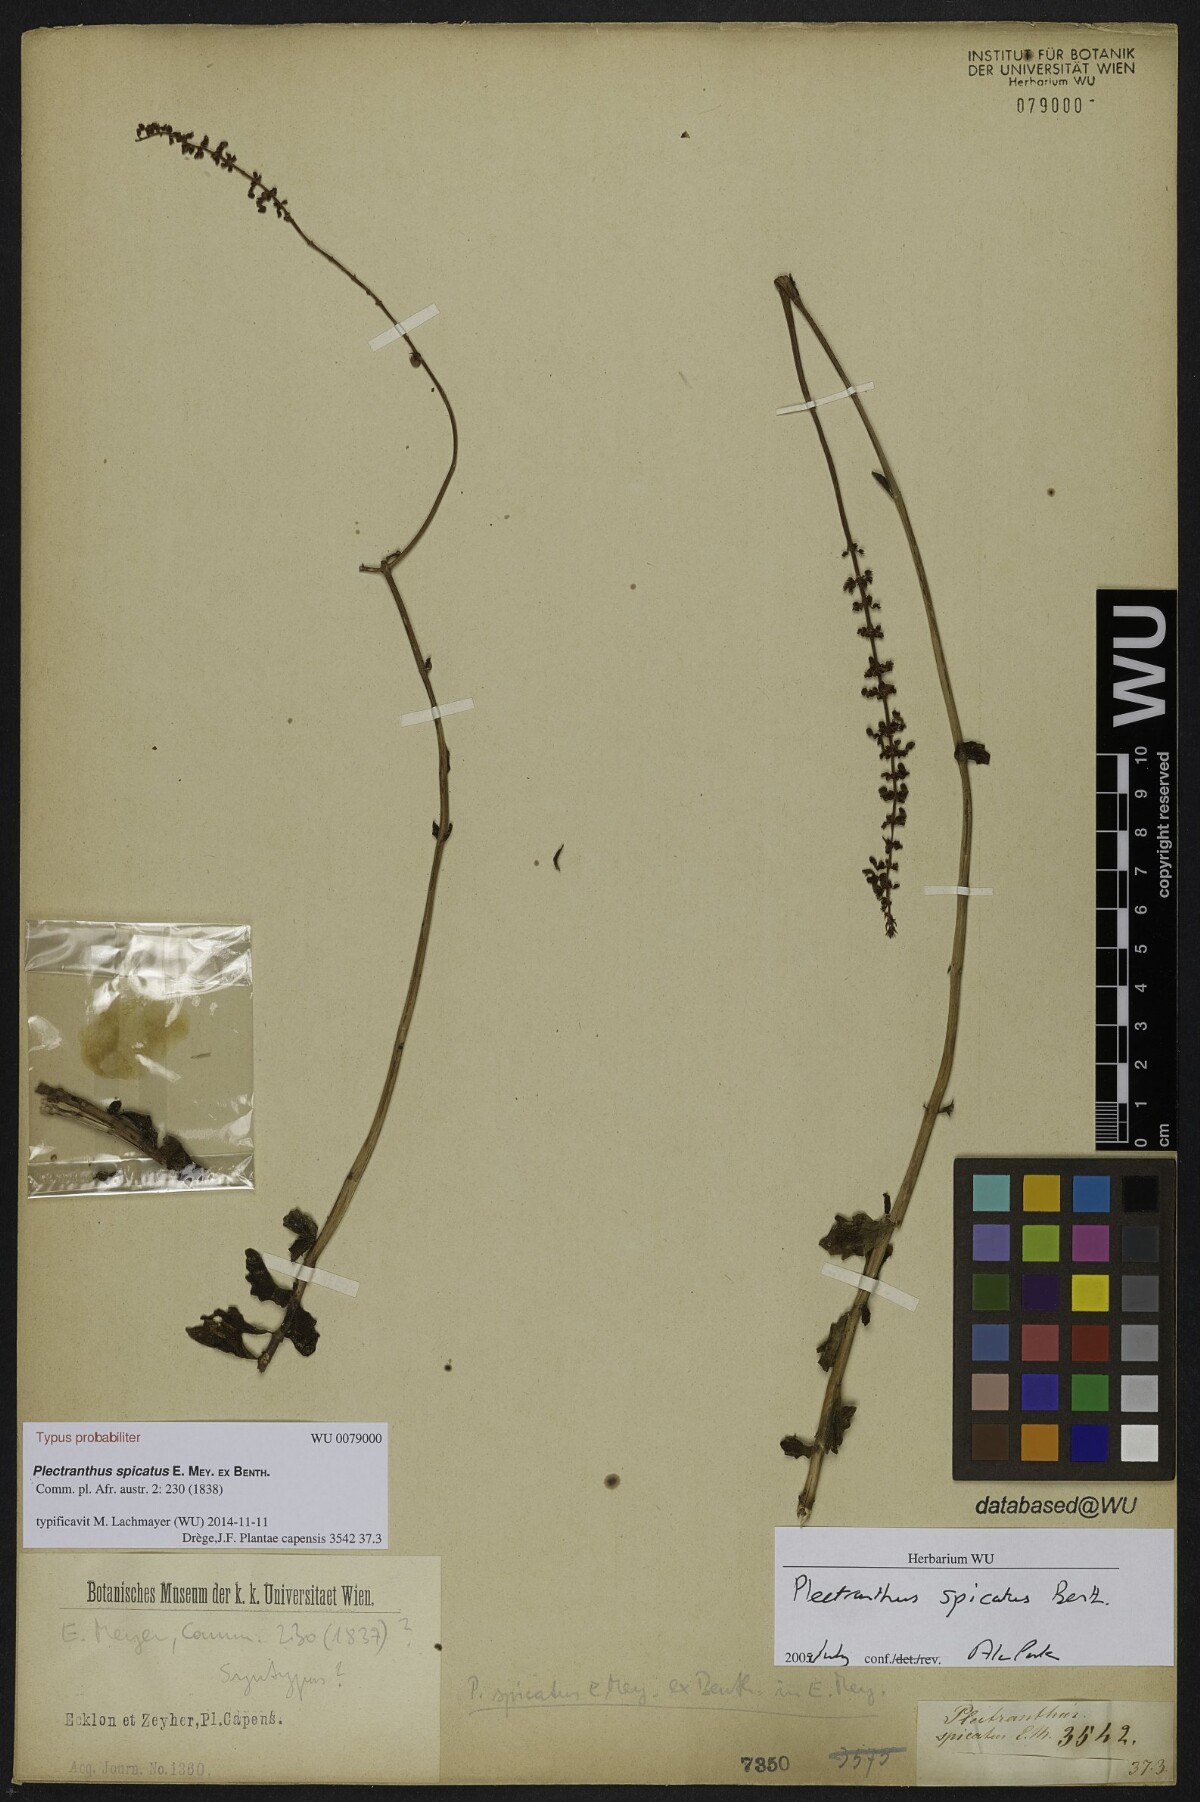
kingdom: Plantae
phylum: Tracheophyta
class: Magnoliopsida
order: Lamiales
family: Lamiaceae
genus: Coleus
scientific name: Coleus subspicatus
